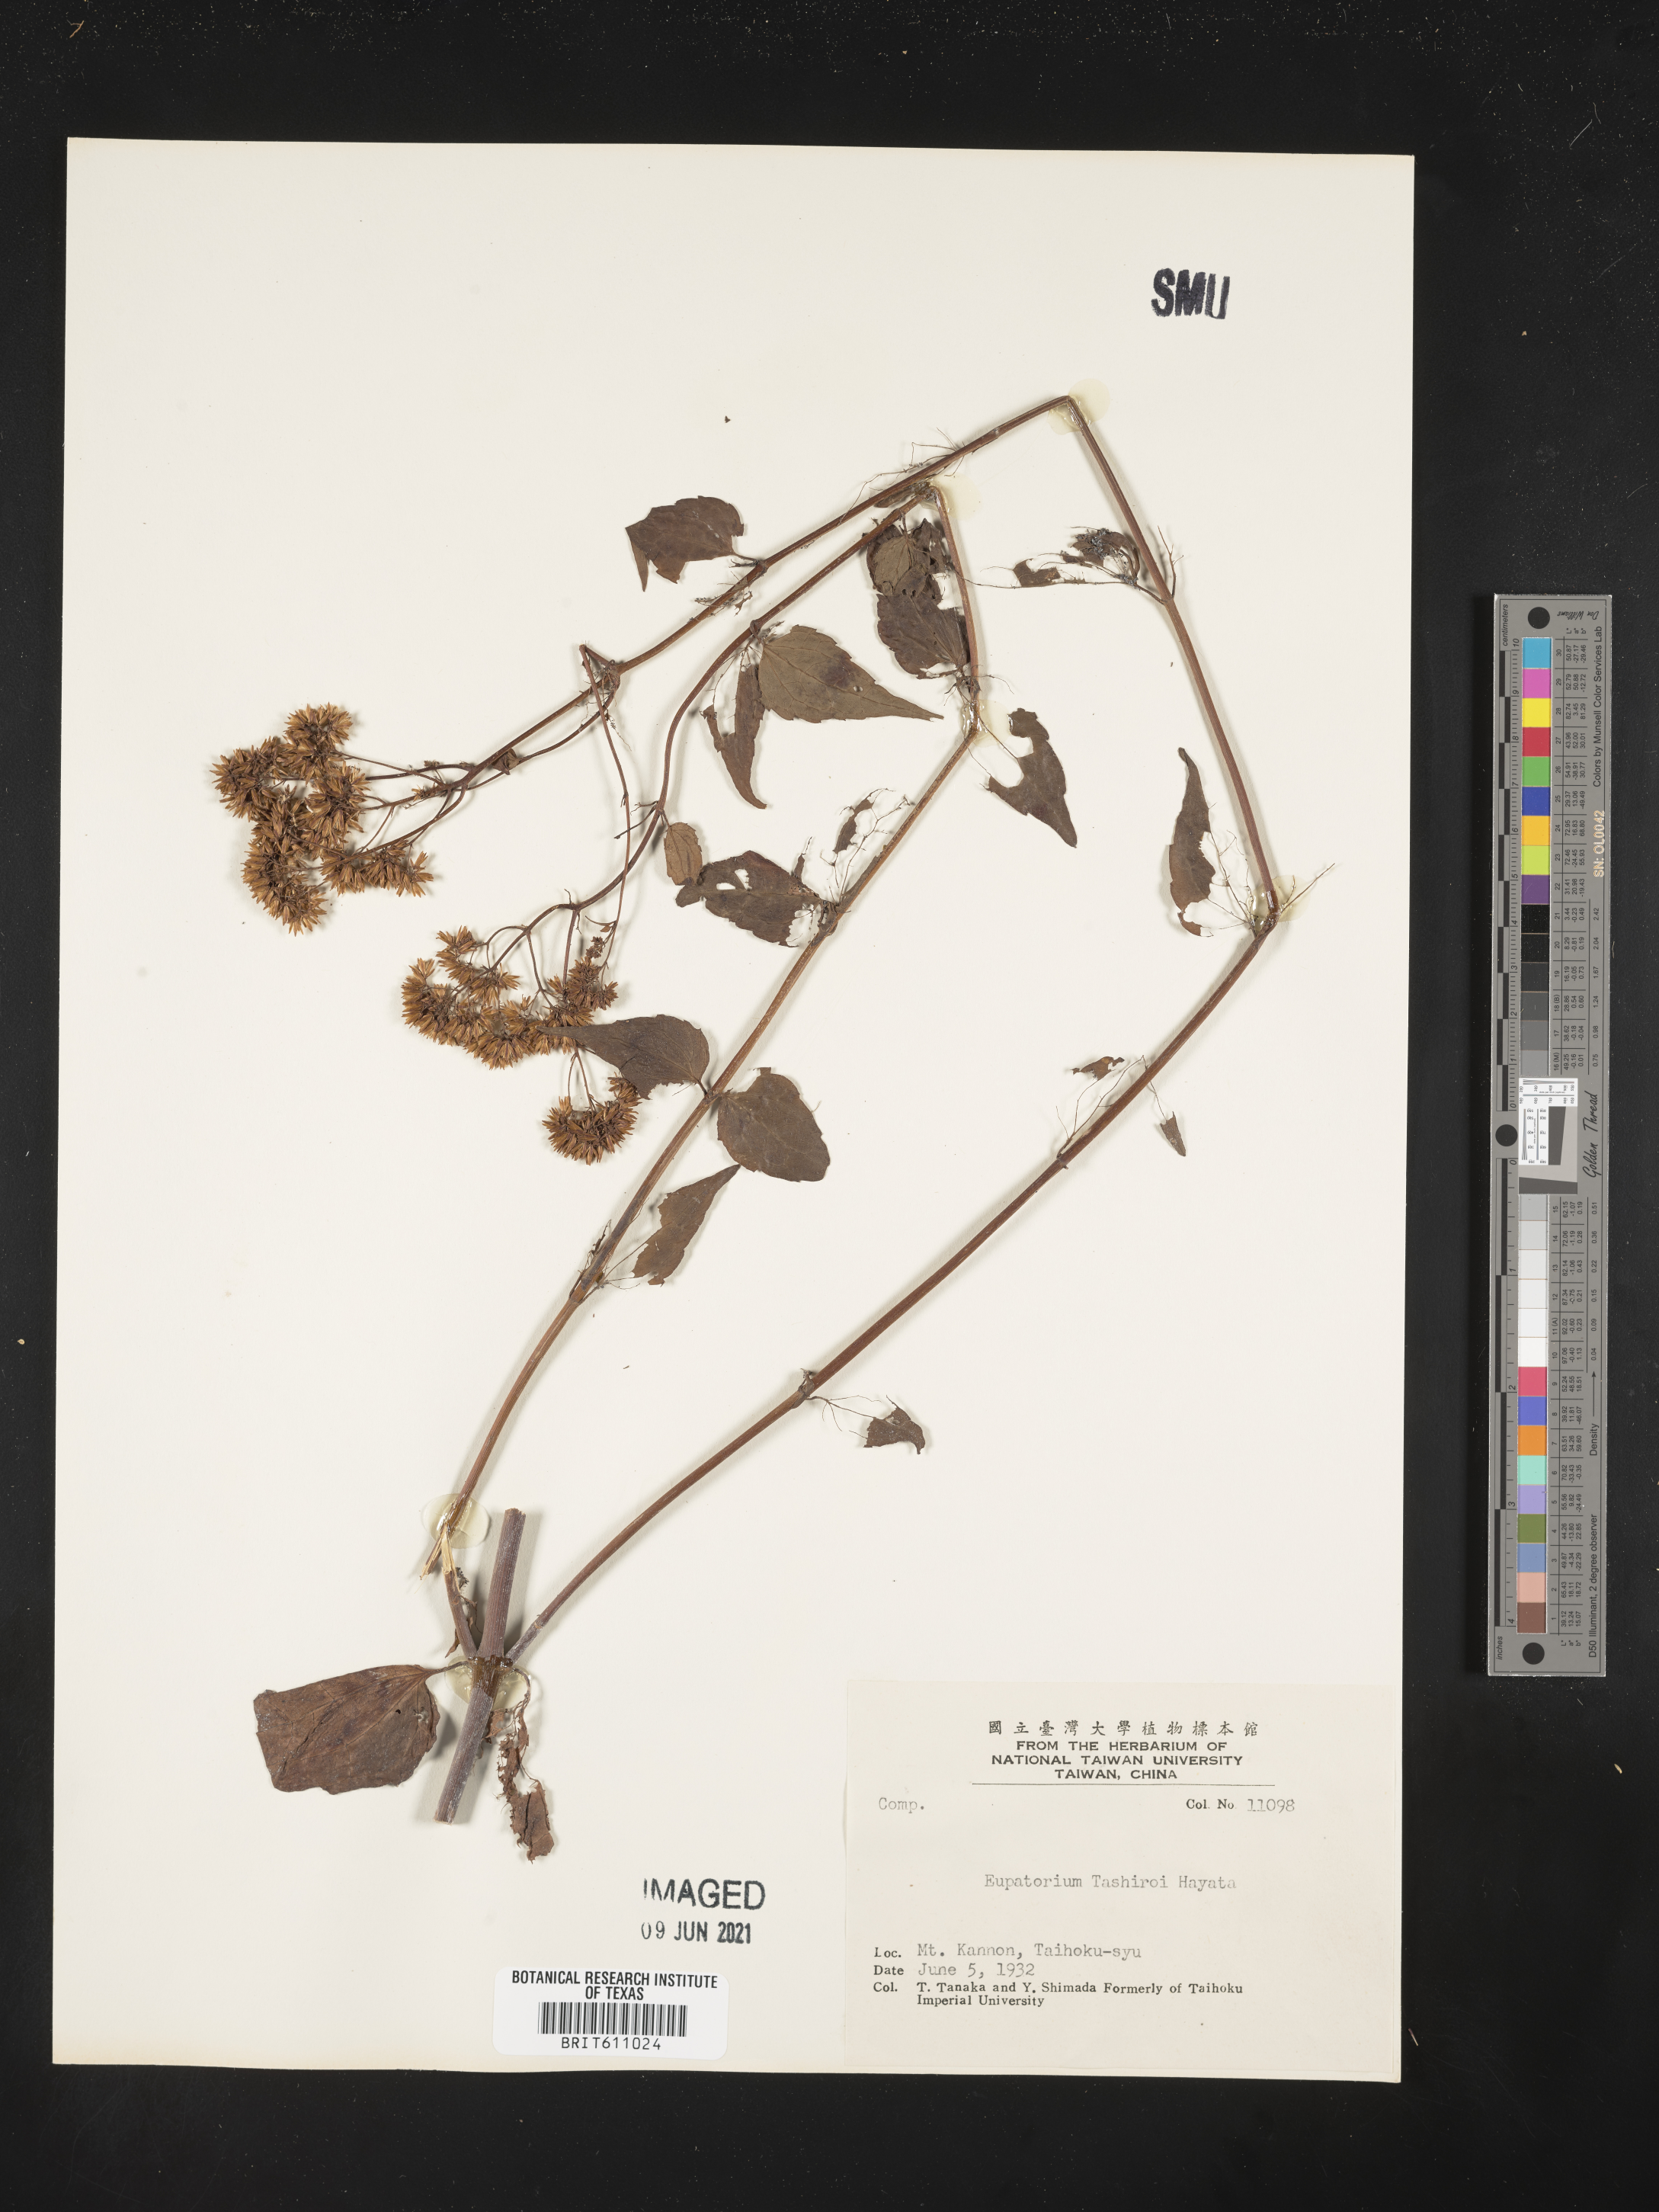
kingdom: Plantae
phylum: Tracheophyta
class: Magnoliopsida
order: Asterales
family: Asteraceae
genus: Eupatorium
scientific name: Eupatorium tashiroi
